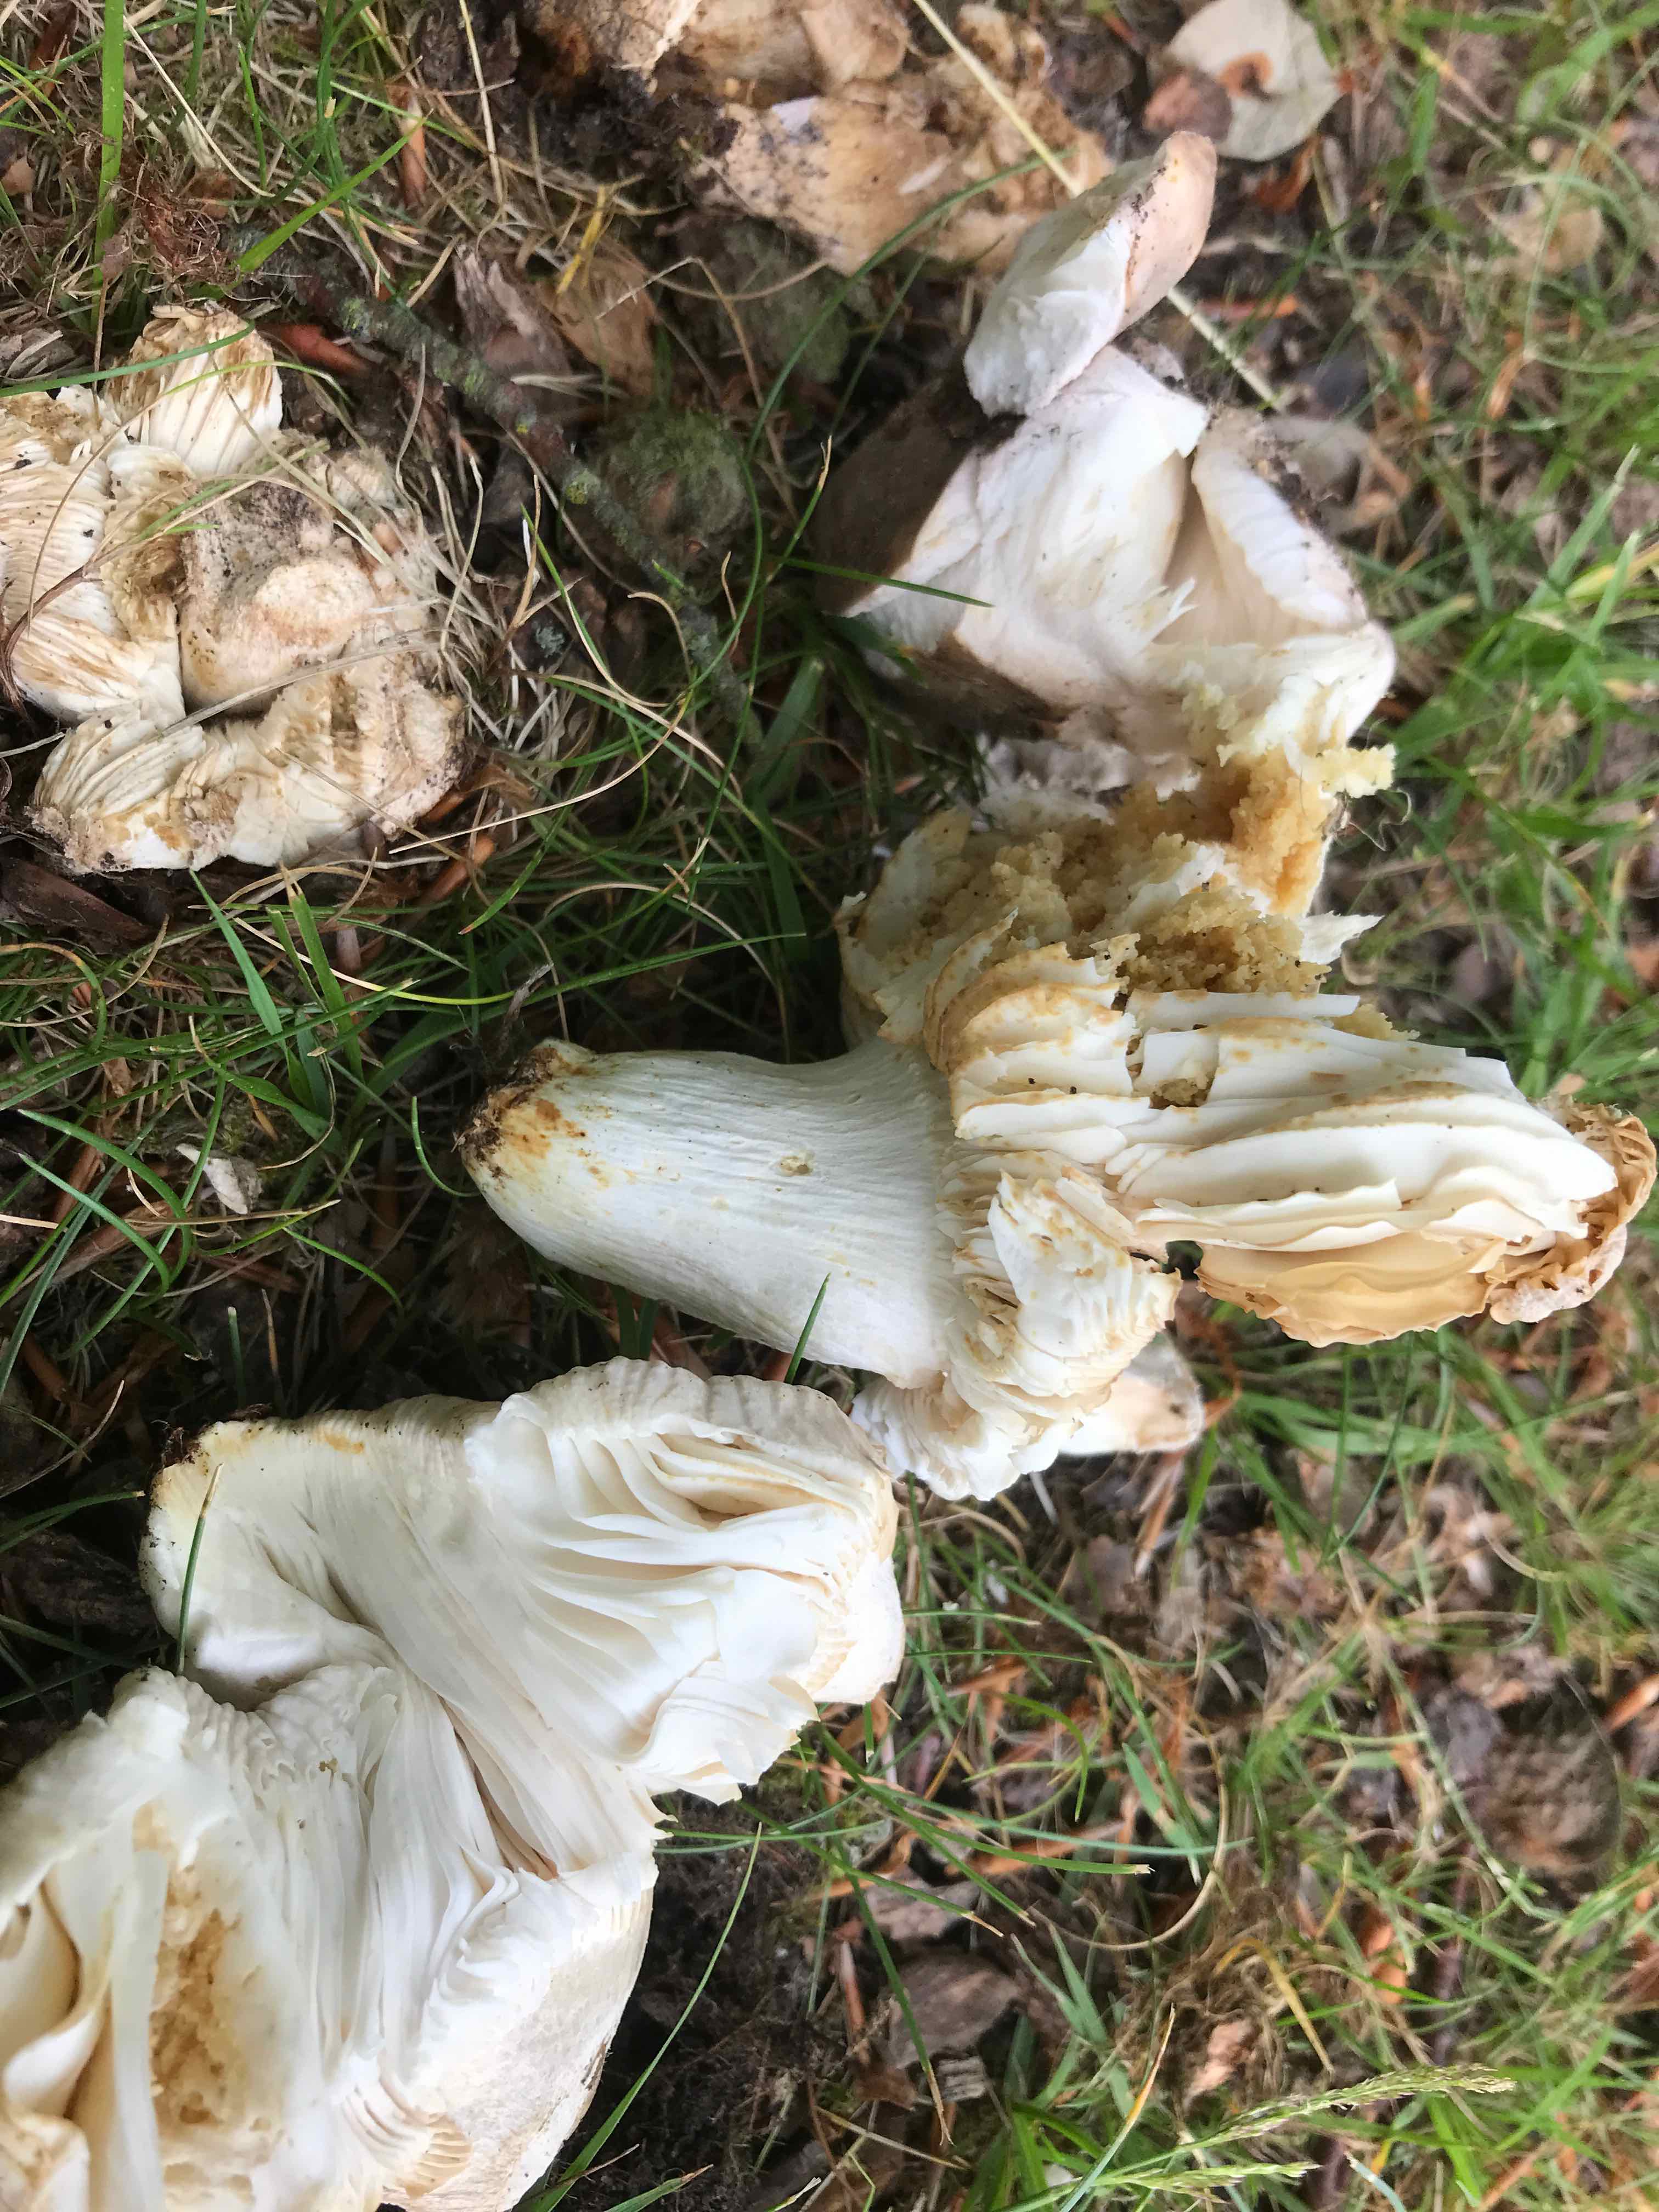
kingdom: Fungi
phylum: Basidiomycota
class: Agaricomycetes
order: Russulales
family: Russulaceae
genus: Russula
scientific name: Russula
